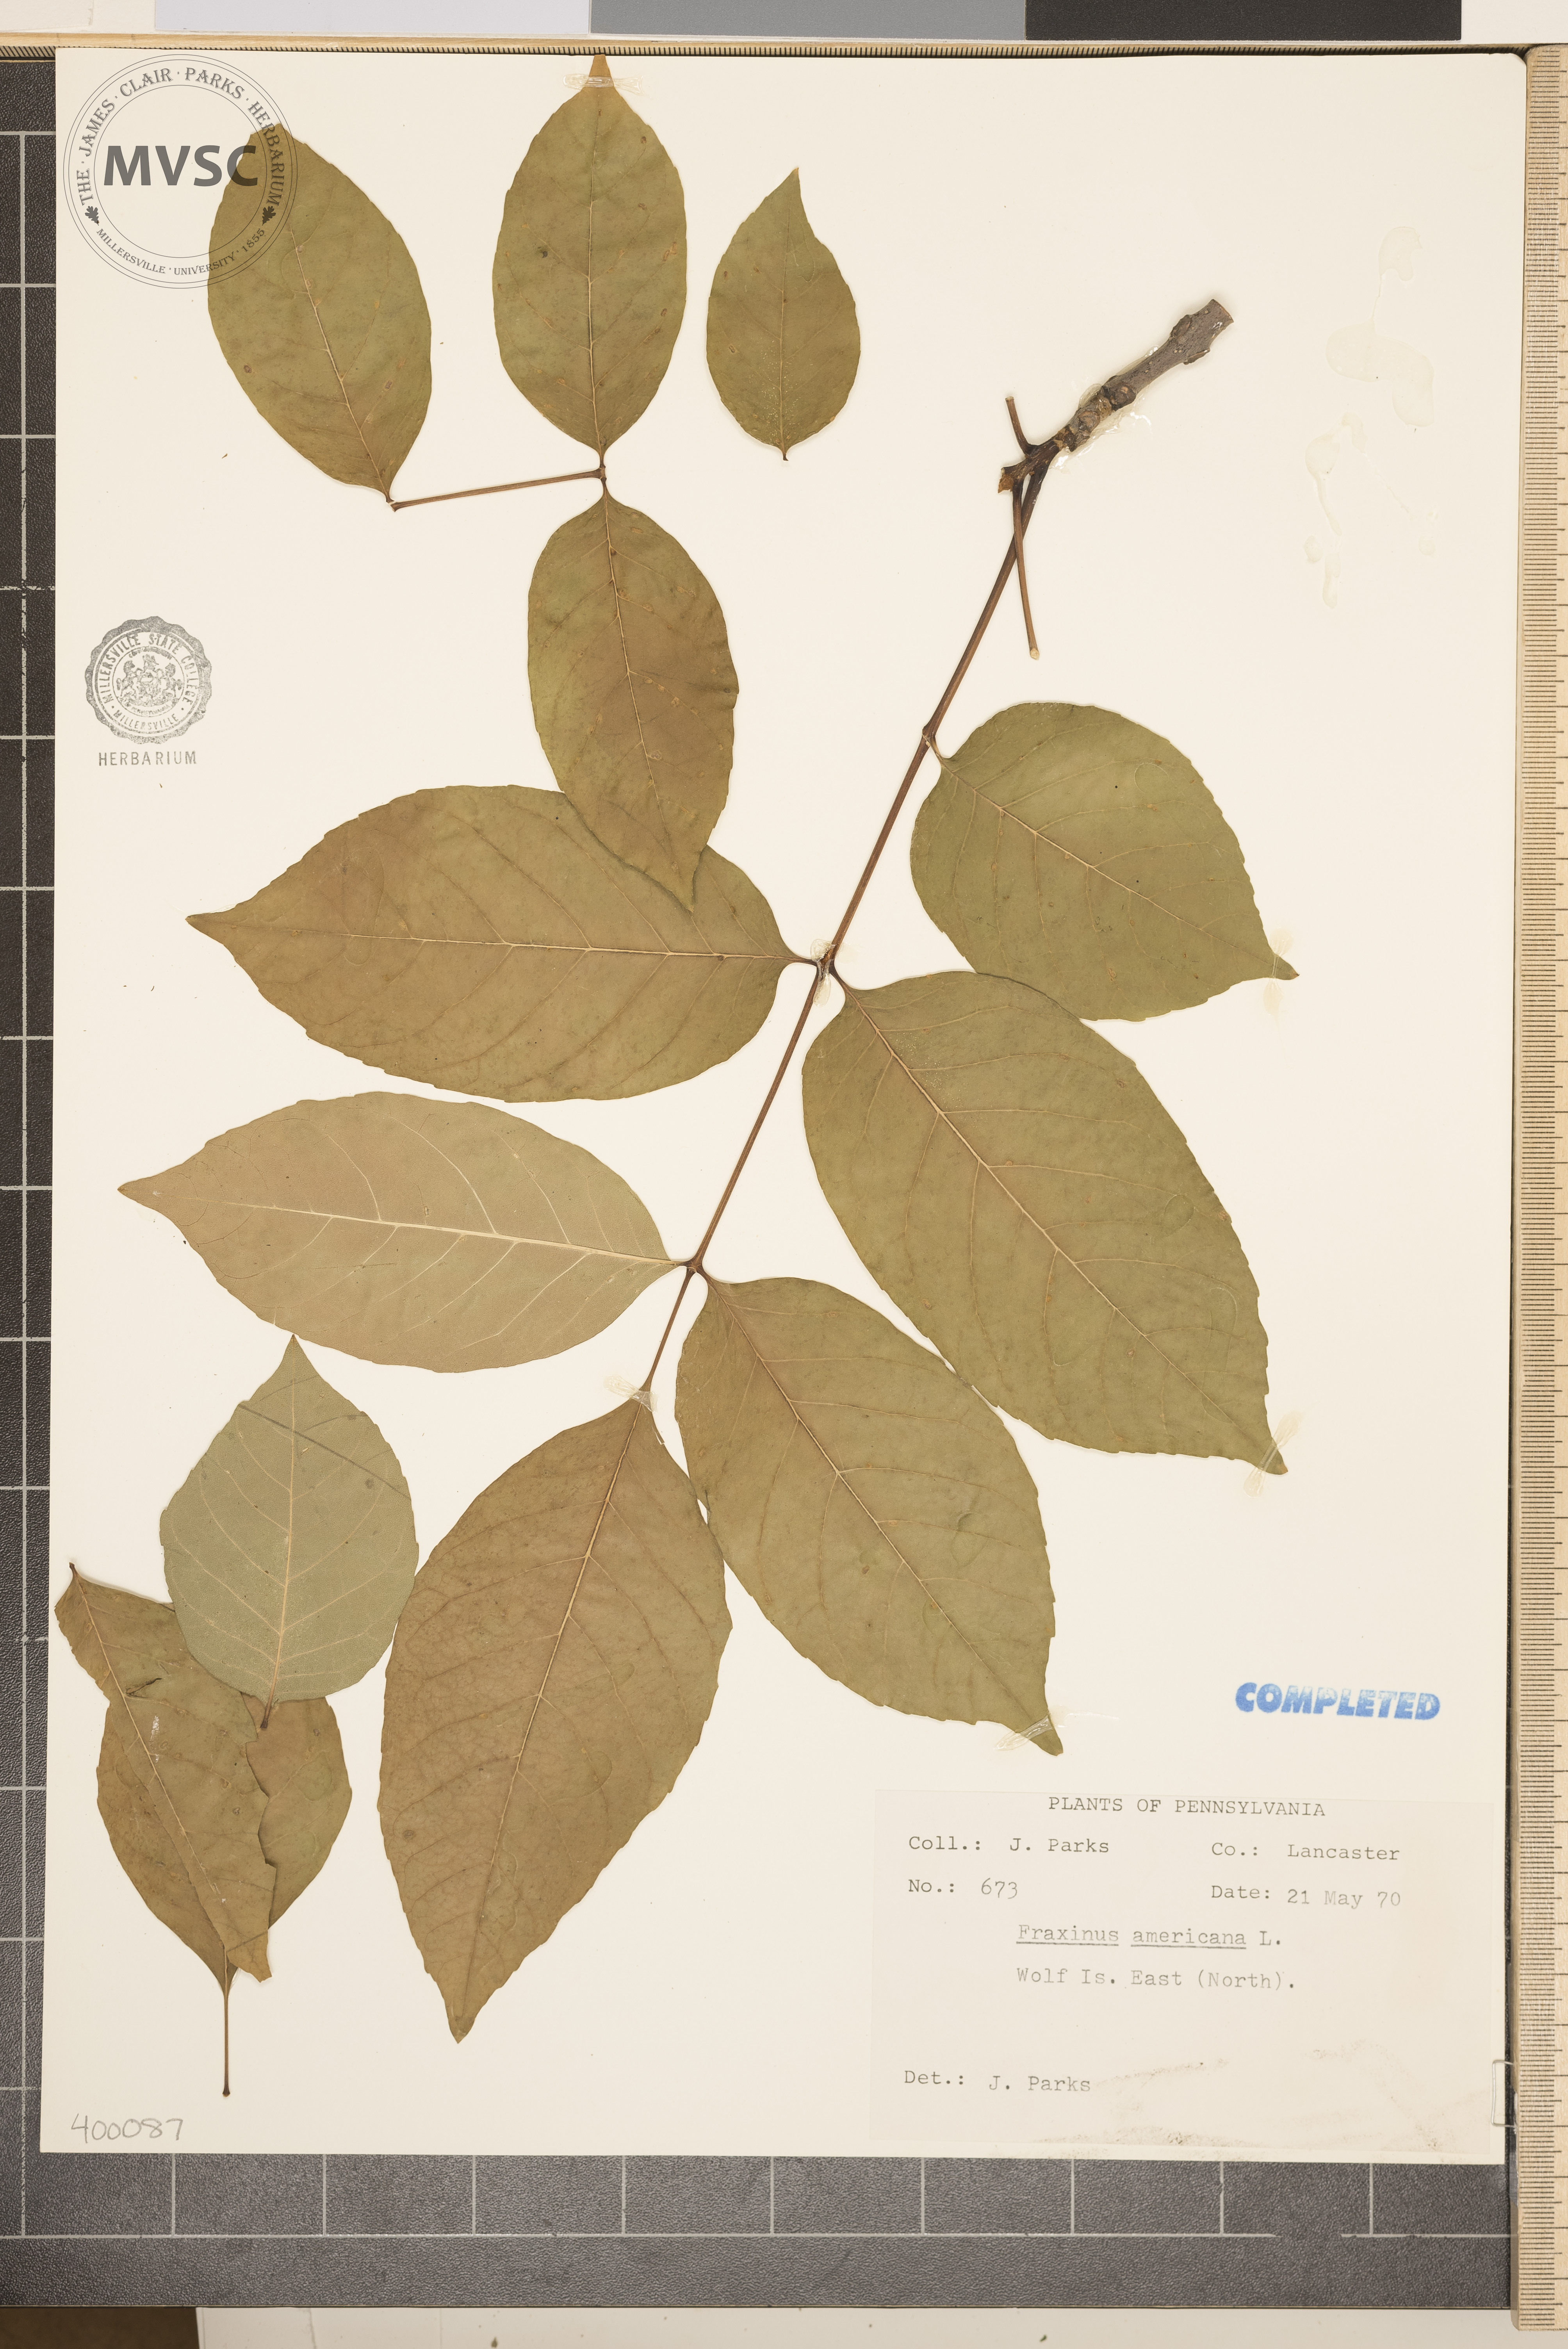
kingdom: Plantae
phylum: Tracheophyta
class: Magnoliopsida
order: Lamiales
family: Oleaceae
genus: Fraxinus
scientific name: Fraxinus americana
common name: ash
